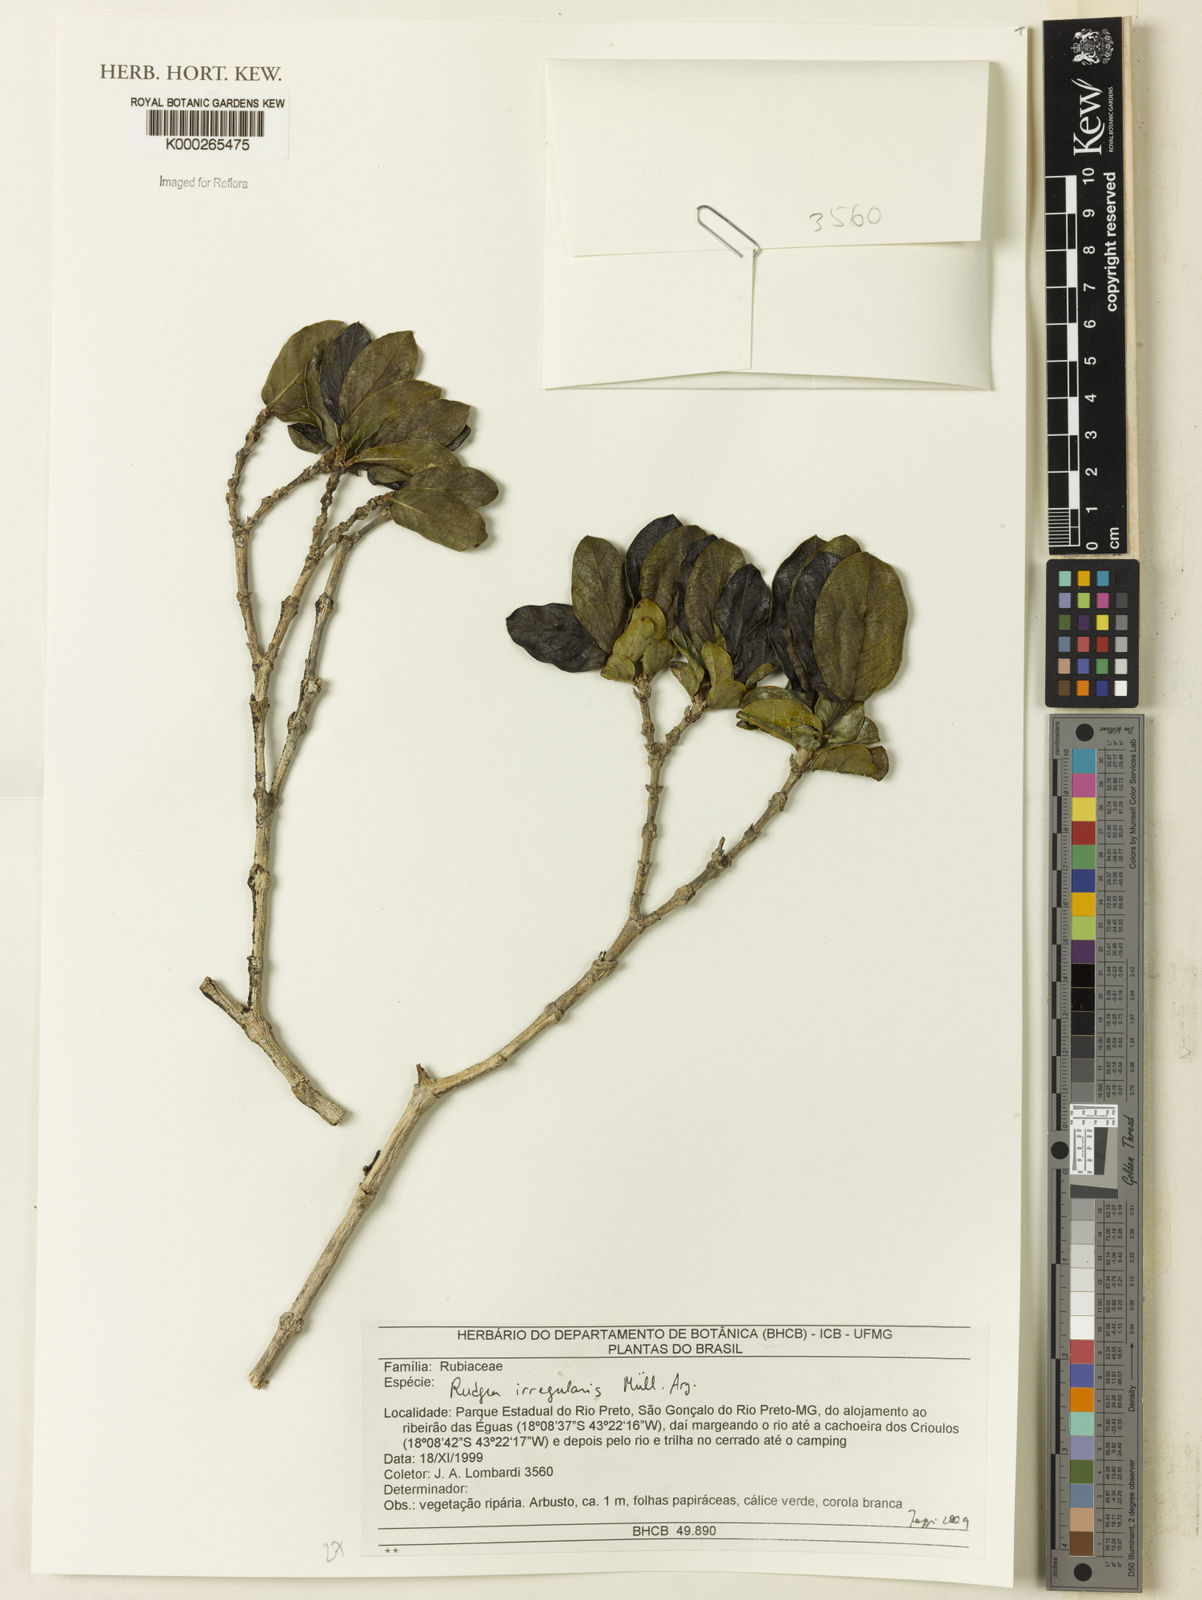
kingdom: Plantae
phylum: Tracheophyta
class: Magnoliopsida
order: Gentianales
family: Rubiaceae
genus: Rudgea
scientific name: Rudgea
